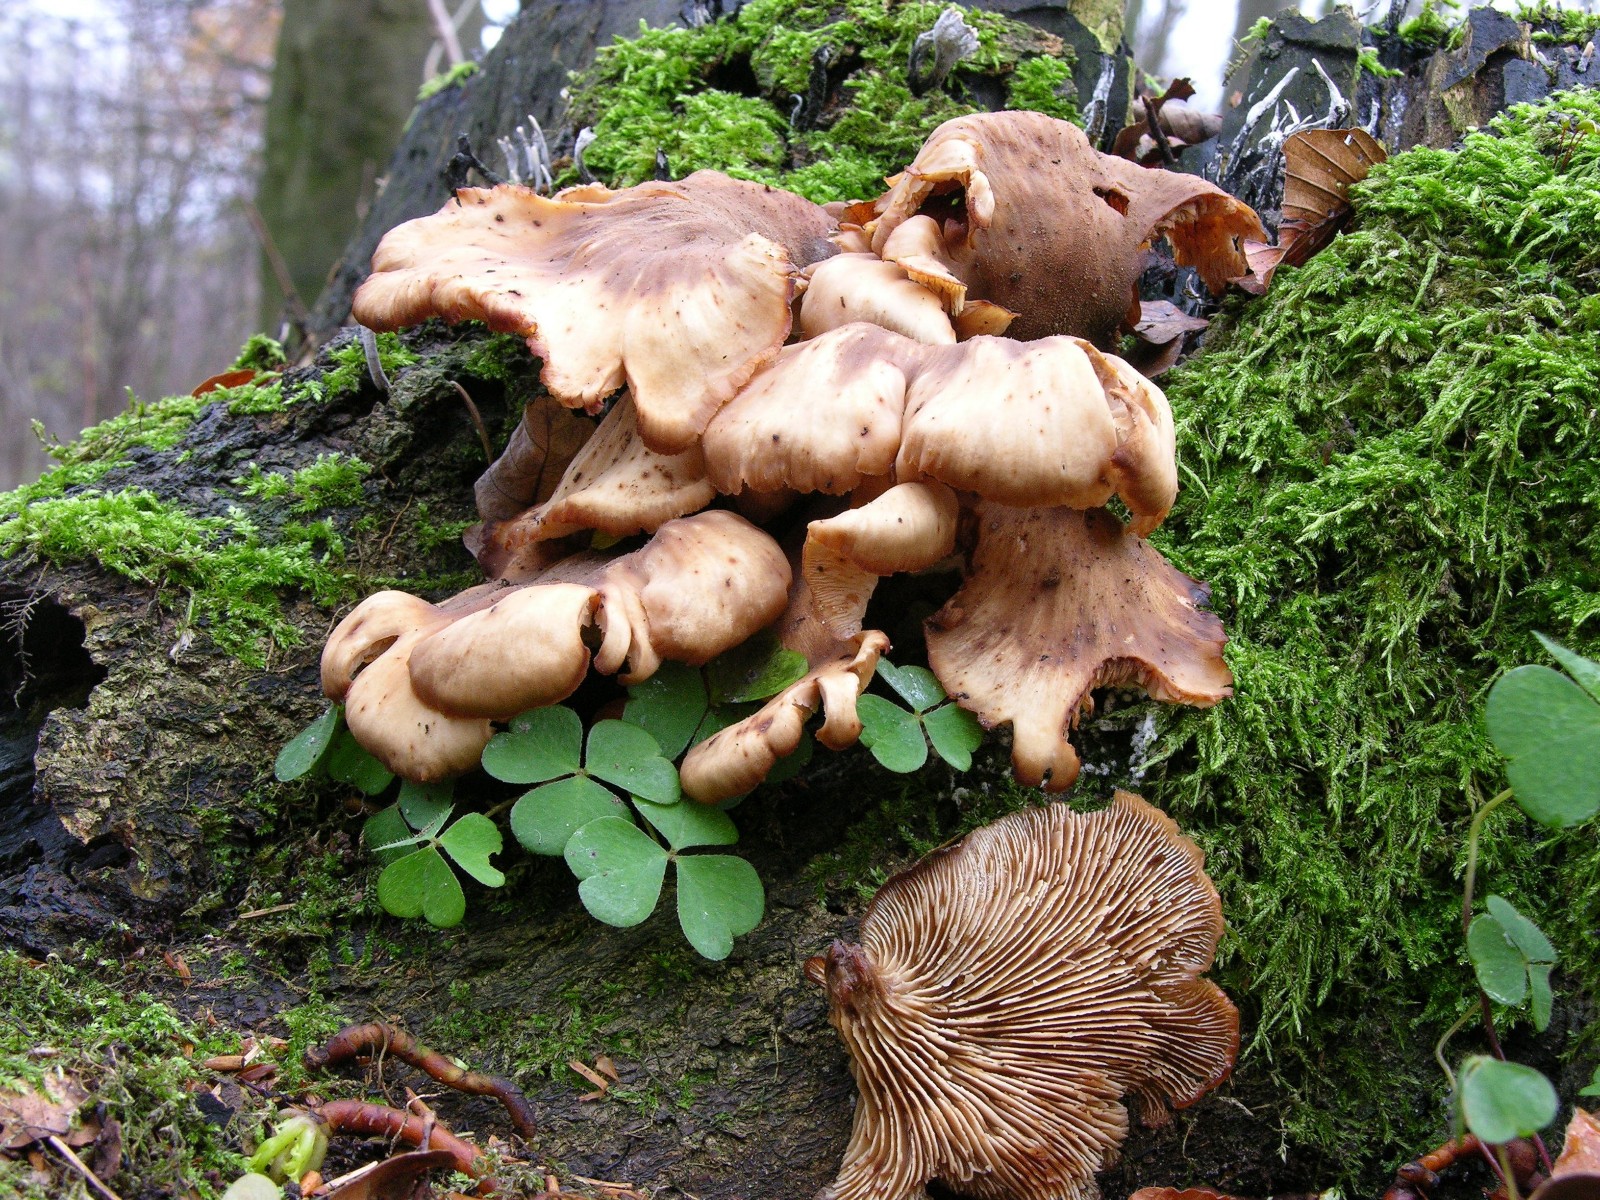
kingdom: Fungi
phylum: Basidiomycota
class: Agaricomycetes
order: Boletales
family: Tapinellaceae
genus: Tapinella
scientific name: Tapinella panuoides
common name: tømmer-viftesvamp
